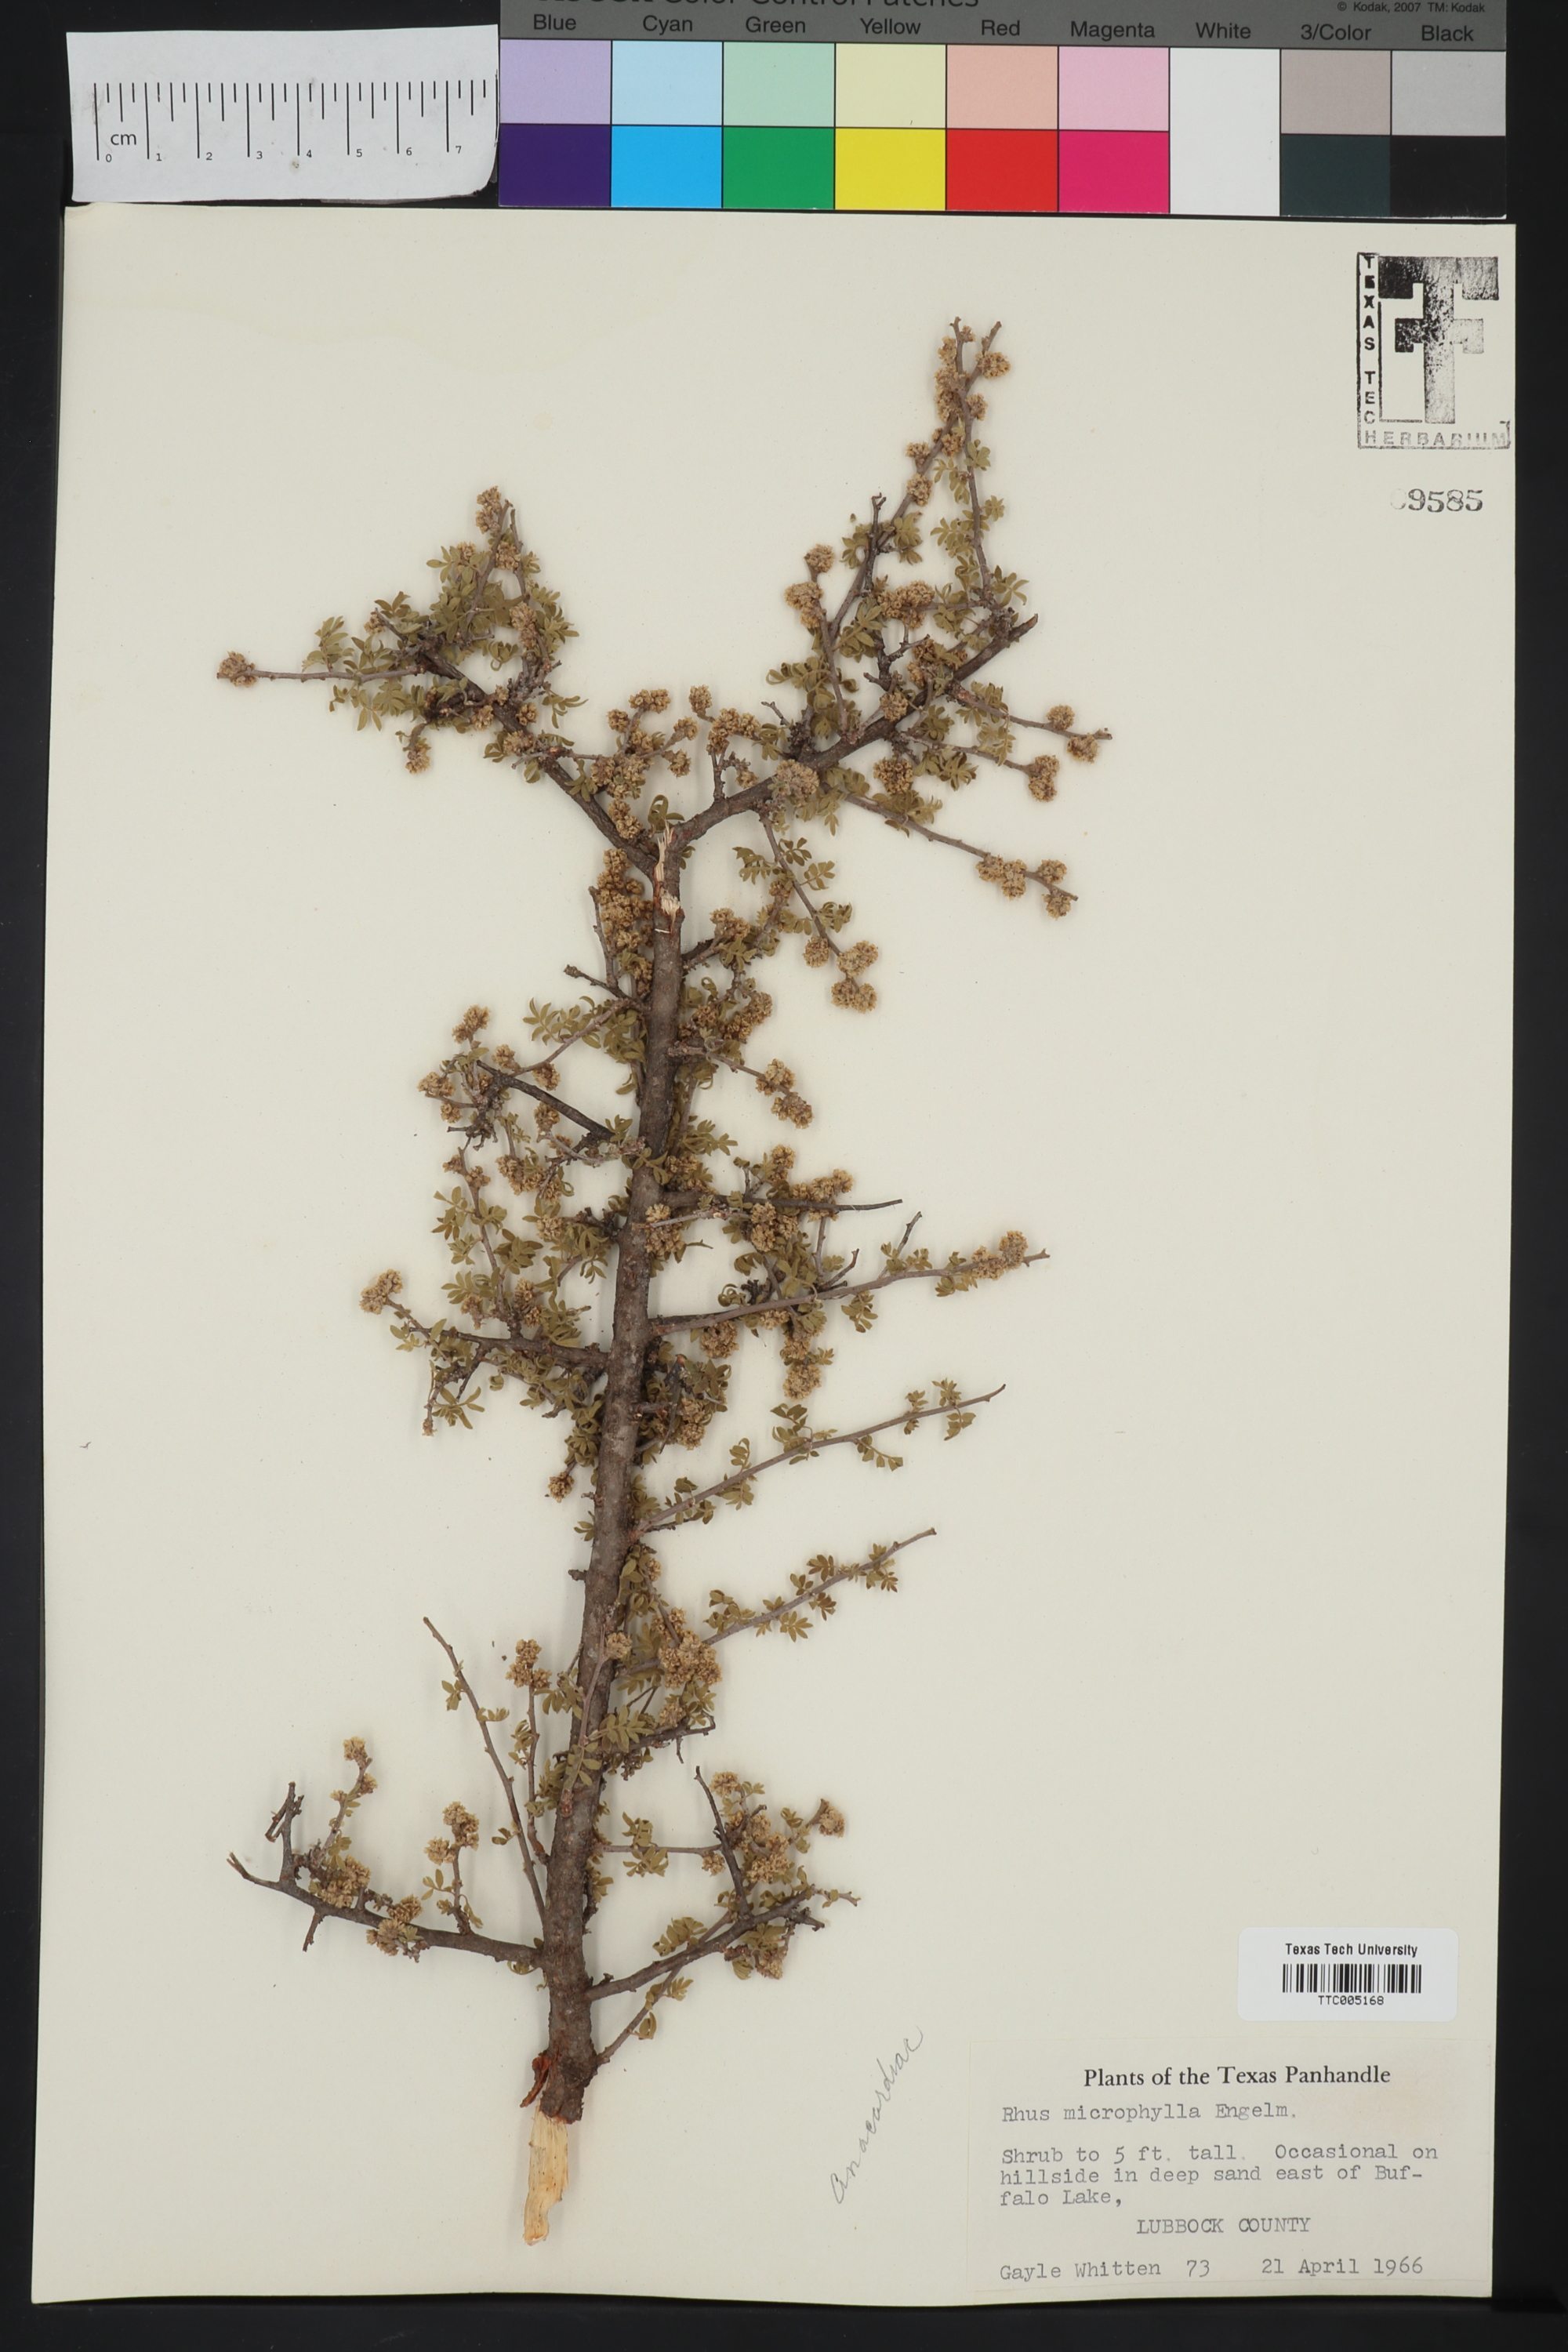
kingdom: Plantae
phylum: Tracheophyta
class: Magnoliopsida
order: Sapindales
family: Anacardiaceae
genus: Rhus
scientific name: Rhus microphylla
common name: Desert sumac
